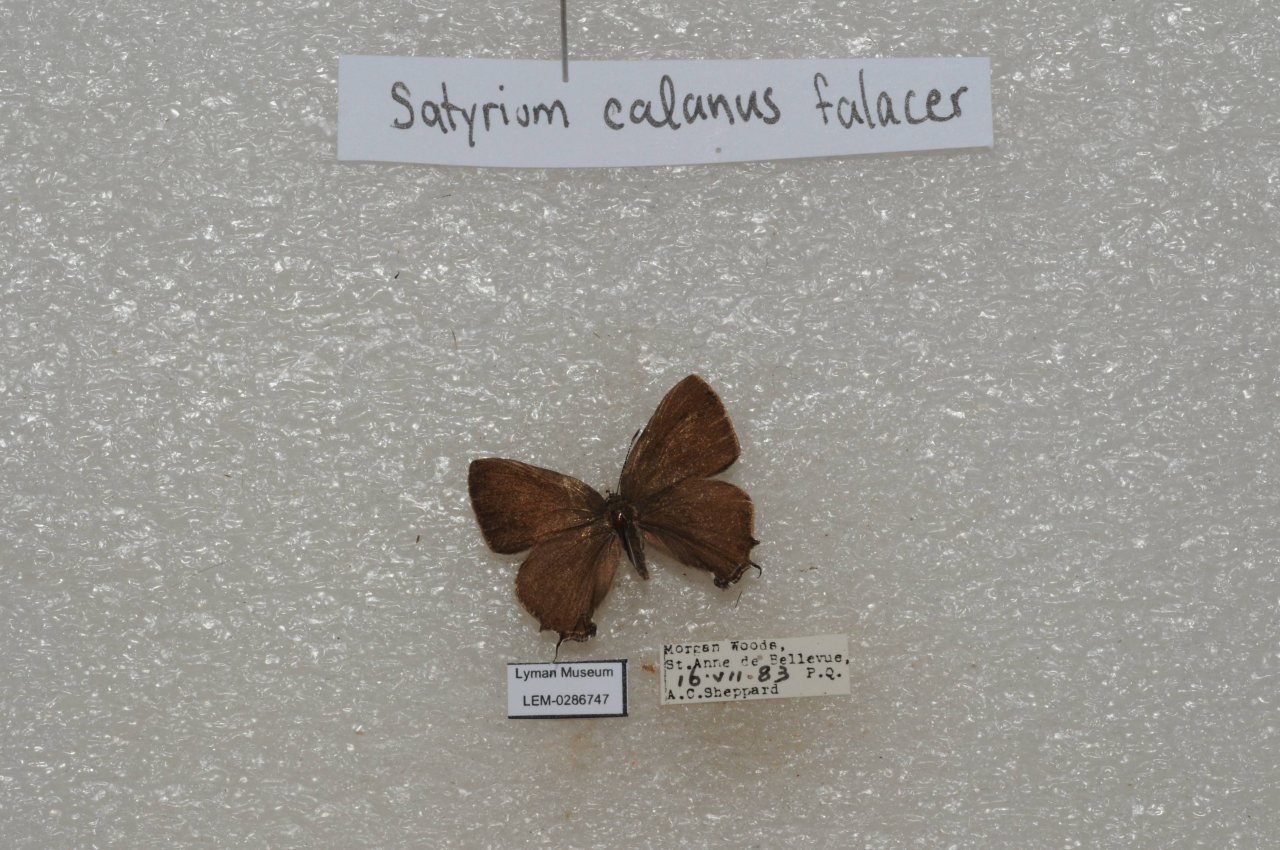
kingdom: Animalia
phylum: Arthropoda
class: Insecta
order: Lepidoptera
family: Lycaenidae
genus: Satyrium
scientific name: Satyrium calanus
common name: Banded Hairstreak
